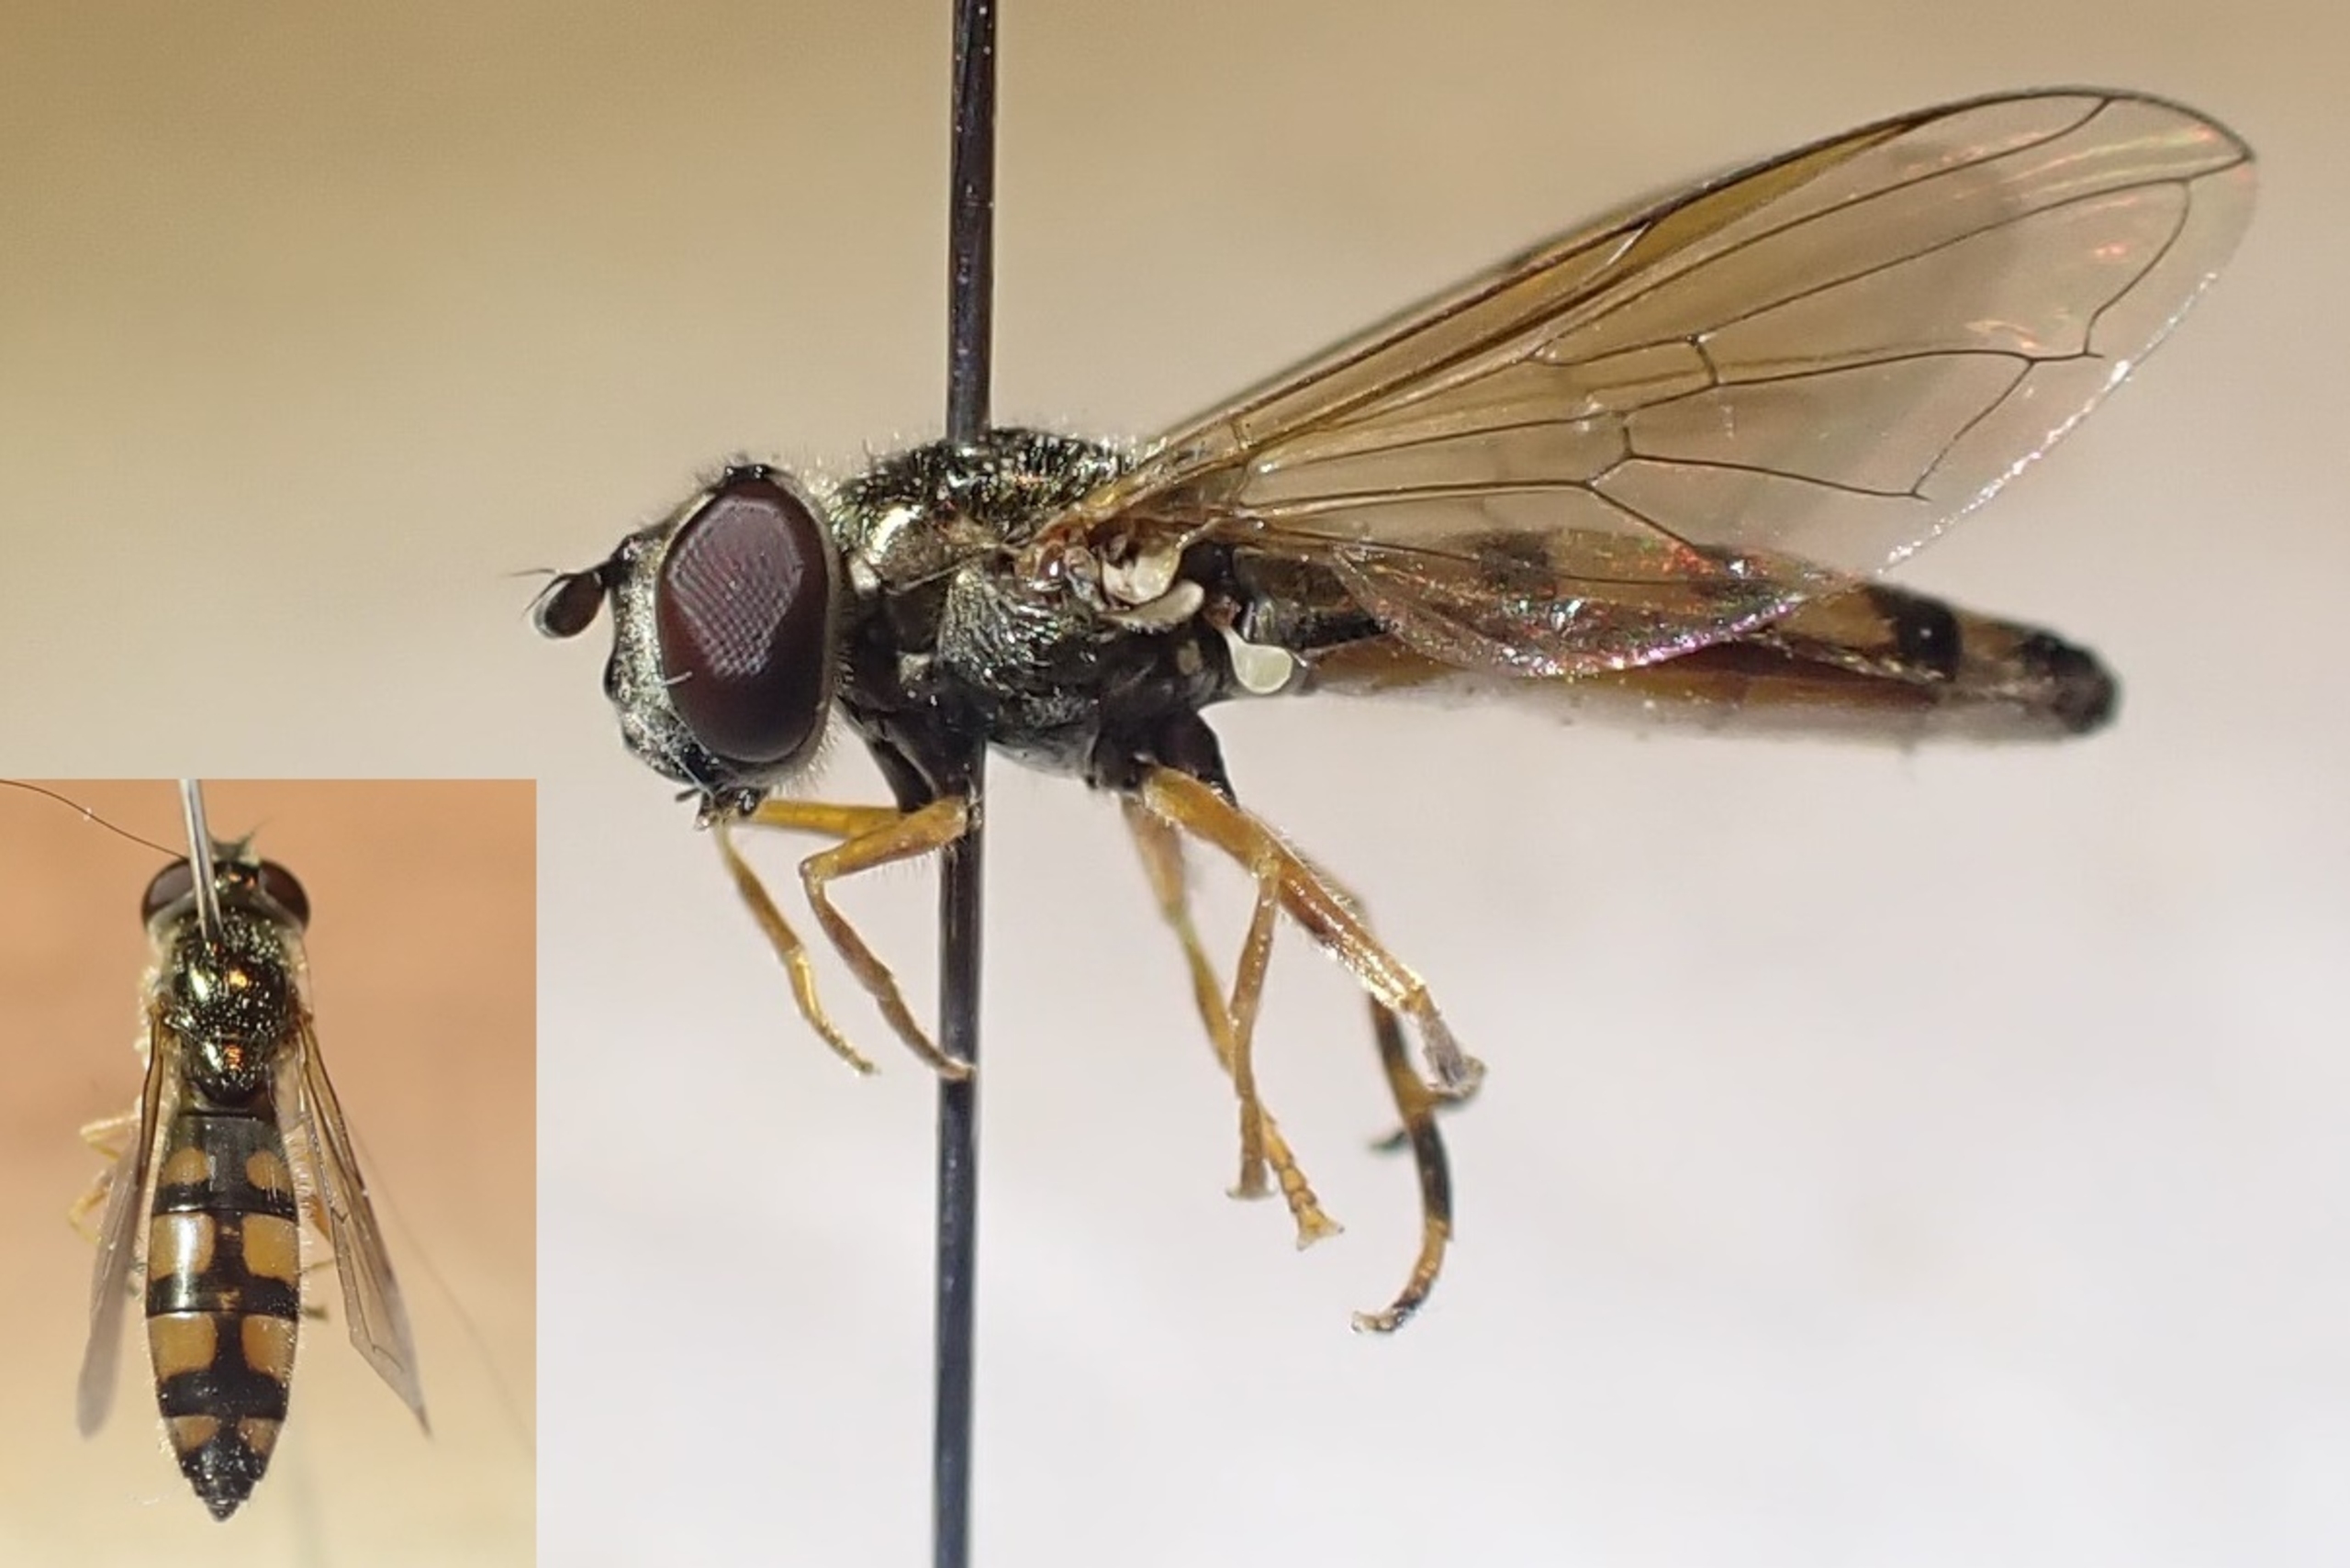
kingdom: Animalia
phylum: Arthropoda
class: Insecta
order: Diptera
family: Syrphidae
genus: Platycheirus
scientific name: Platycheirus clypeatus
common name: Skjold-bredfodsflue
